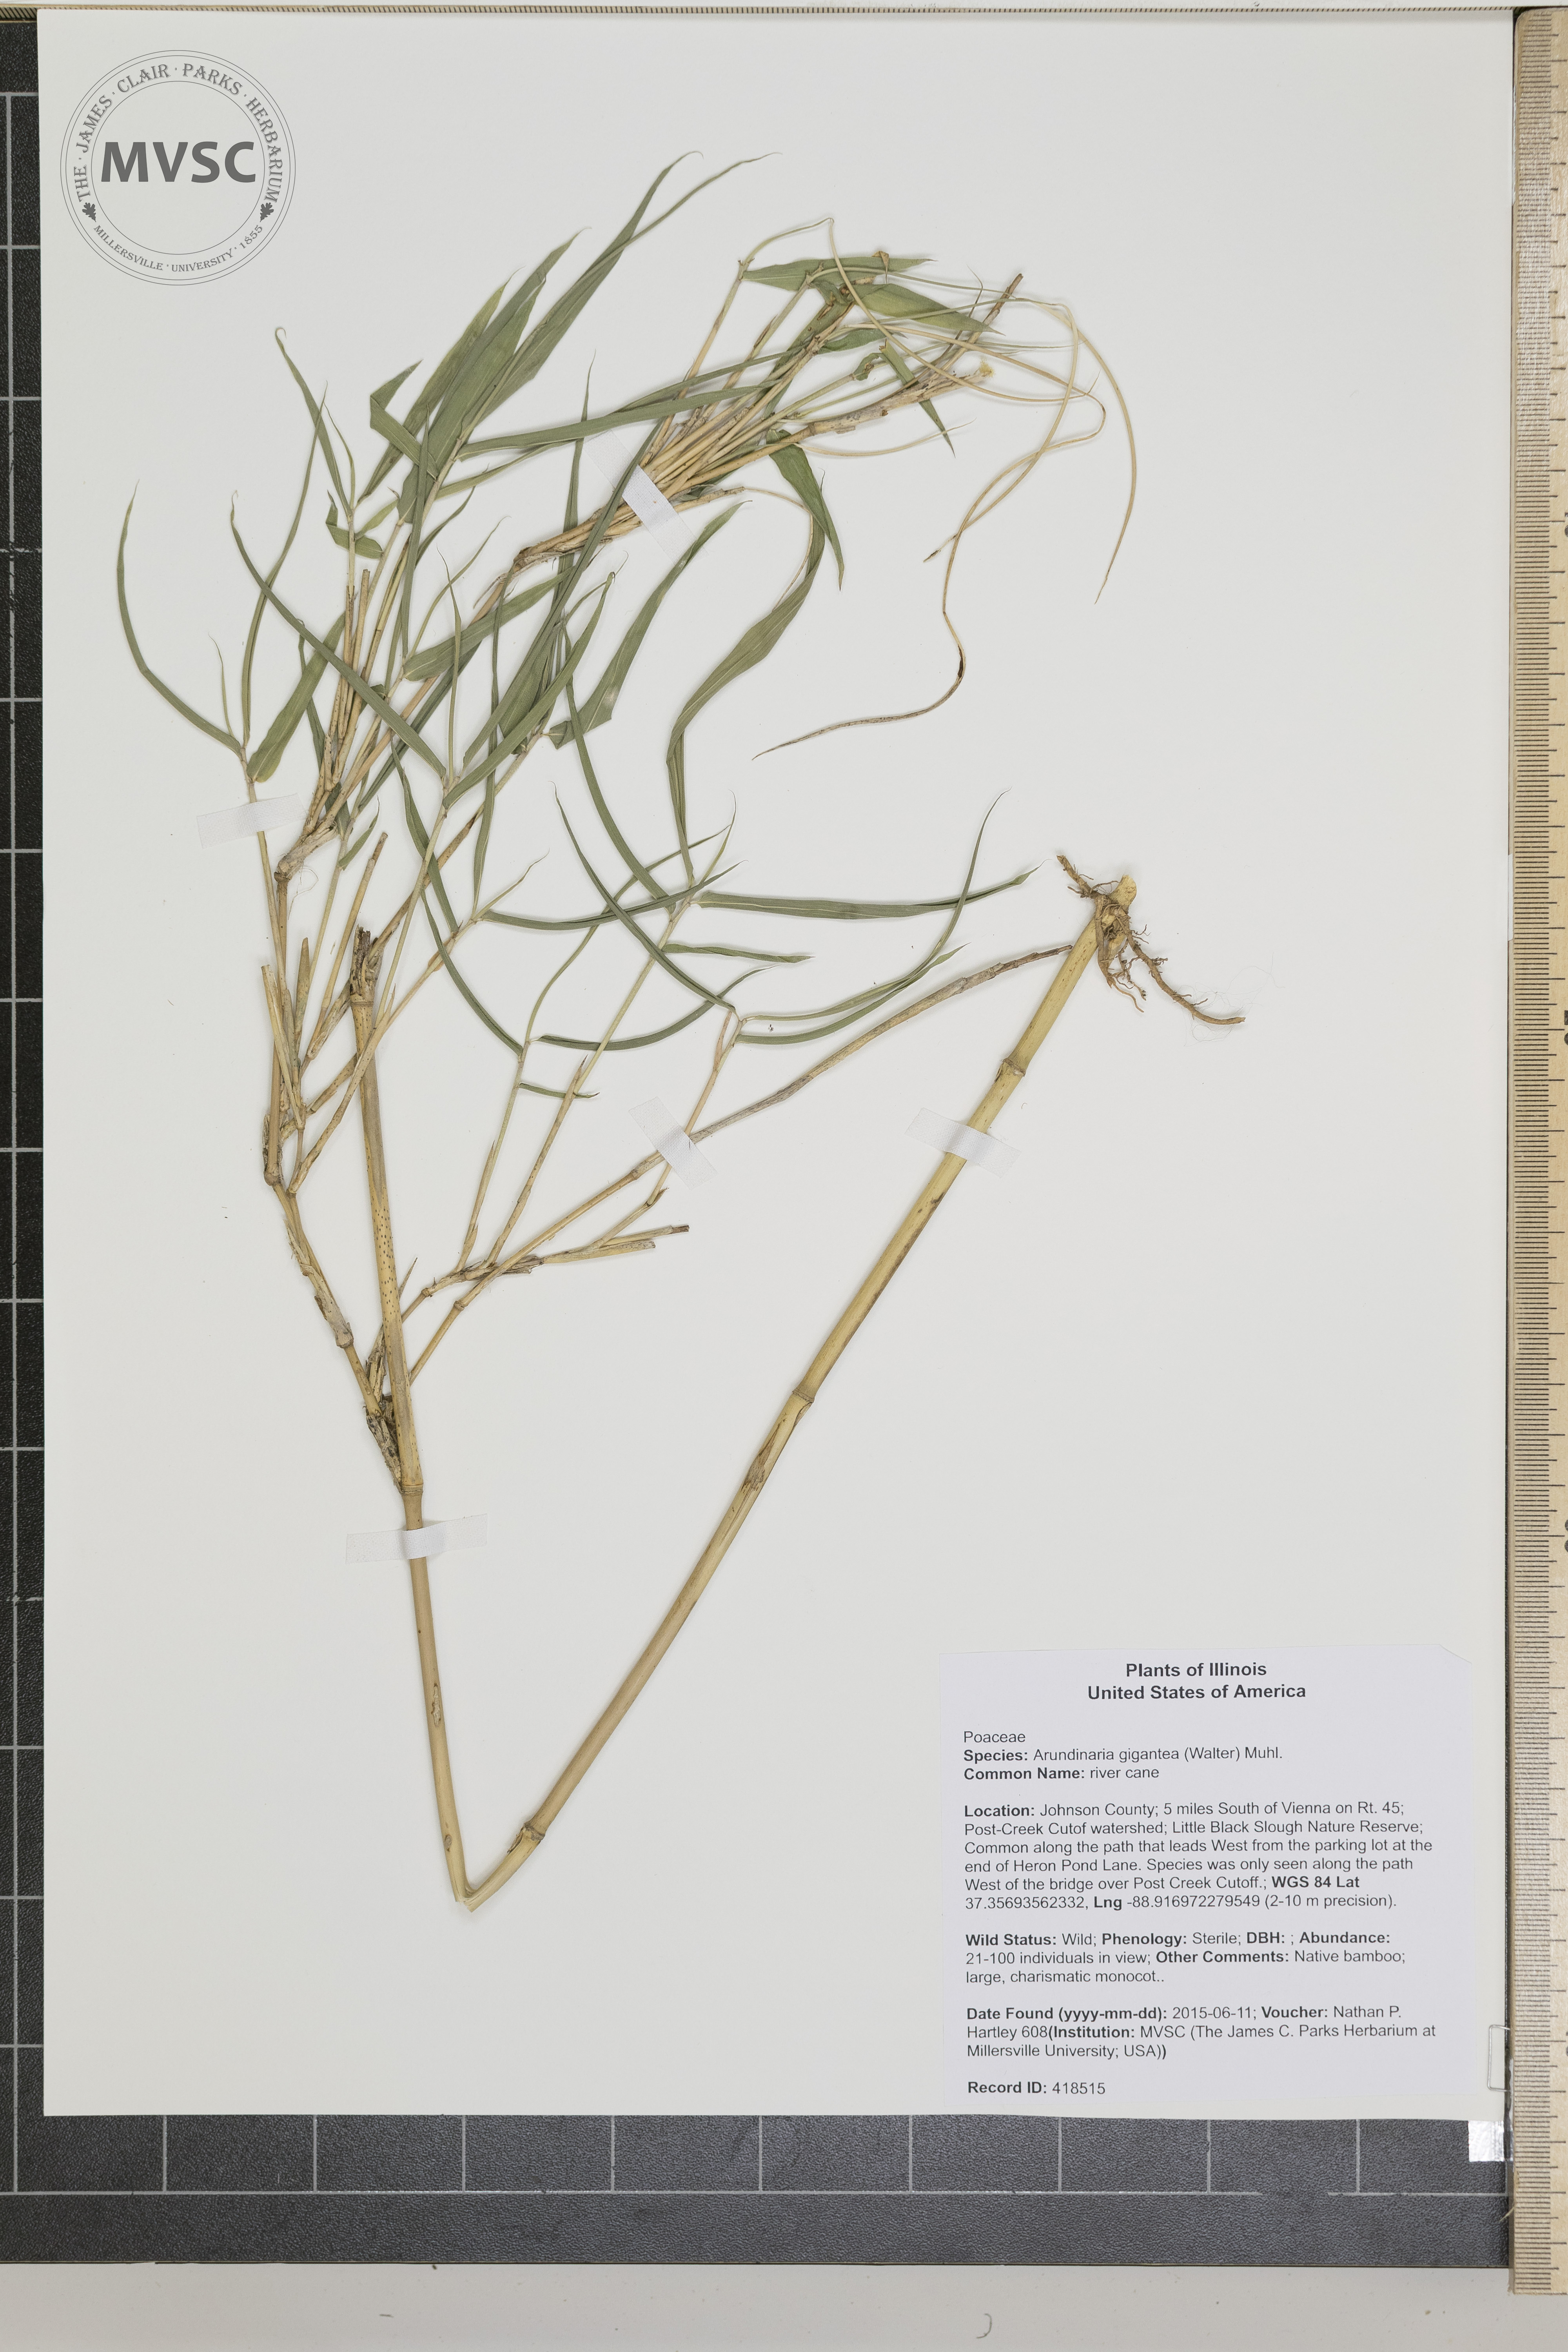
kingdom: Plantae
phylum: Tracheophyta
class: Liliopsida
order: Poales
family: Poaceae
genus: Arundinaria
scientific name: Arundinaria gigantea
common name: river cane
